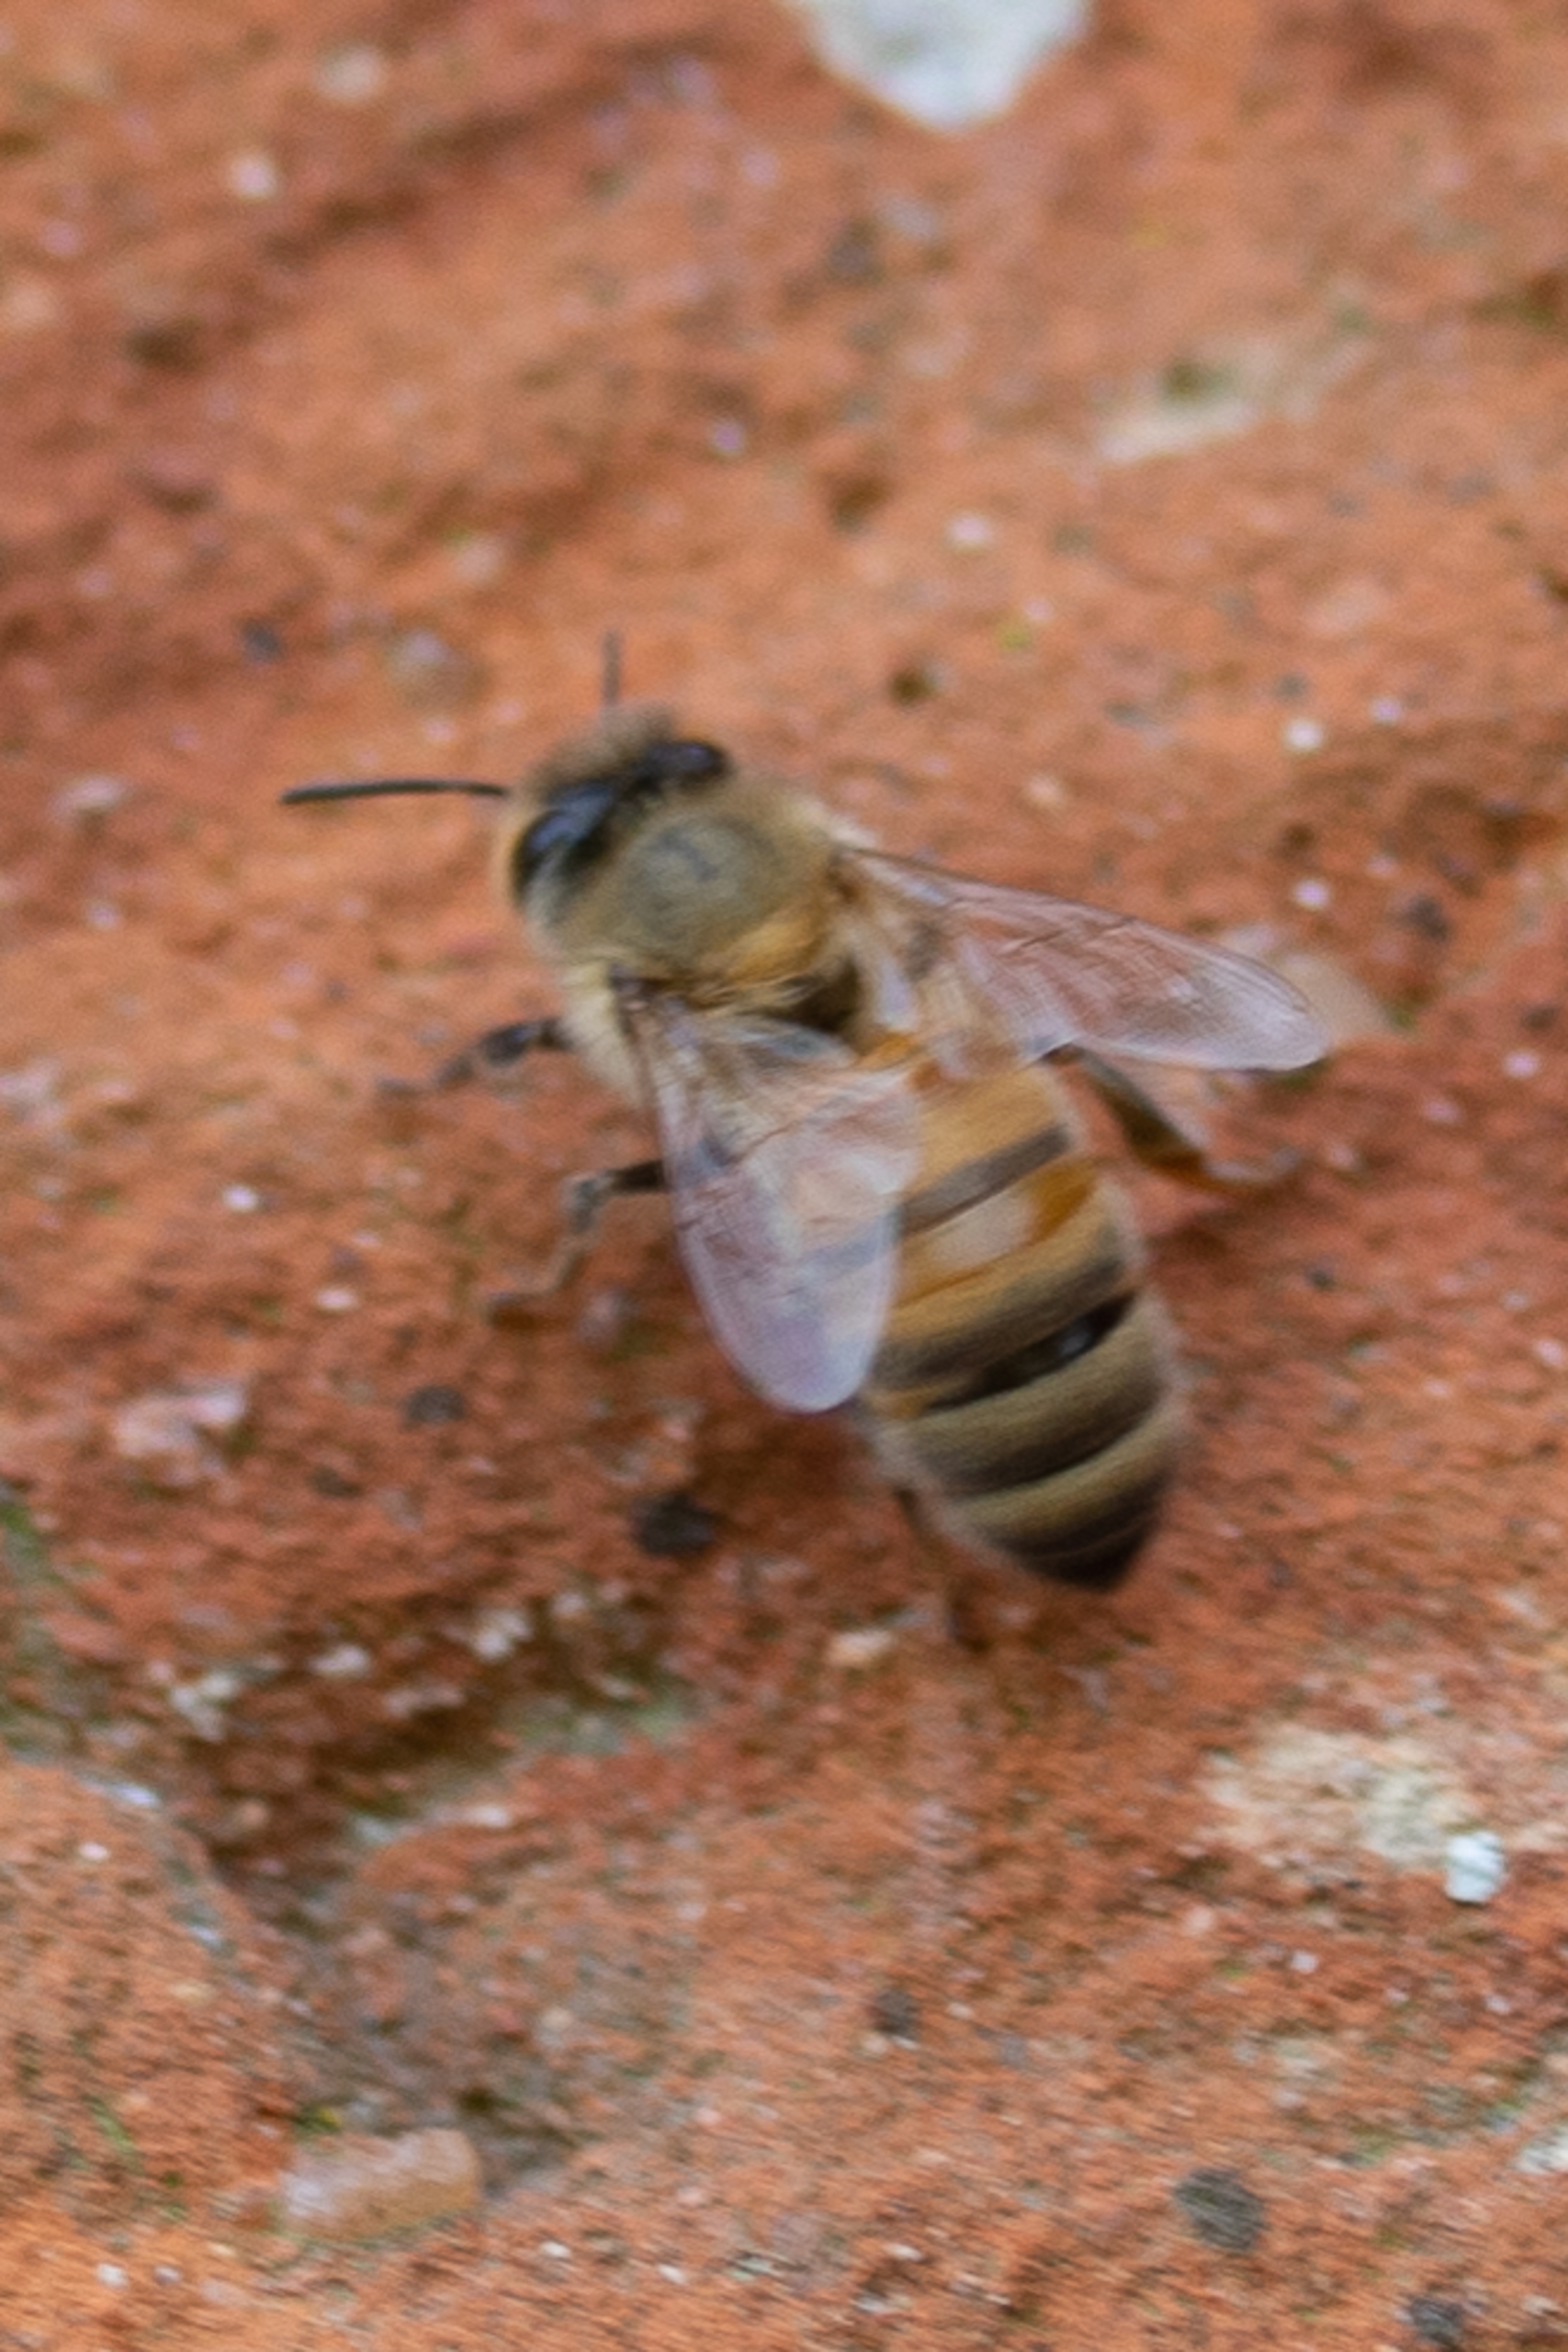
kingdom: Animalia
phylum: Arthropoda
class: Insecta
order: Hymenoptera
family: Apidae
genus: Apis
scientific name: Apis mellifera
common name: Honningbi
